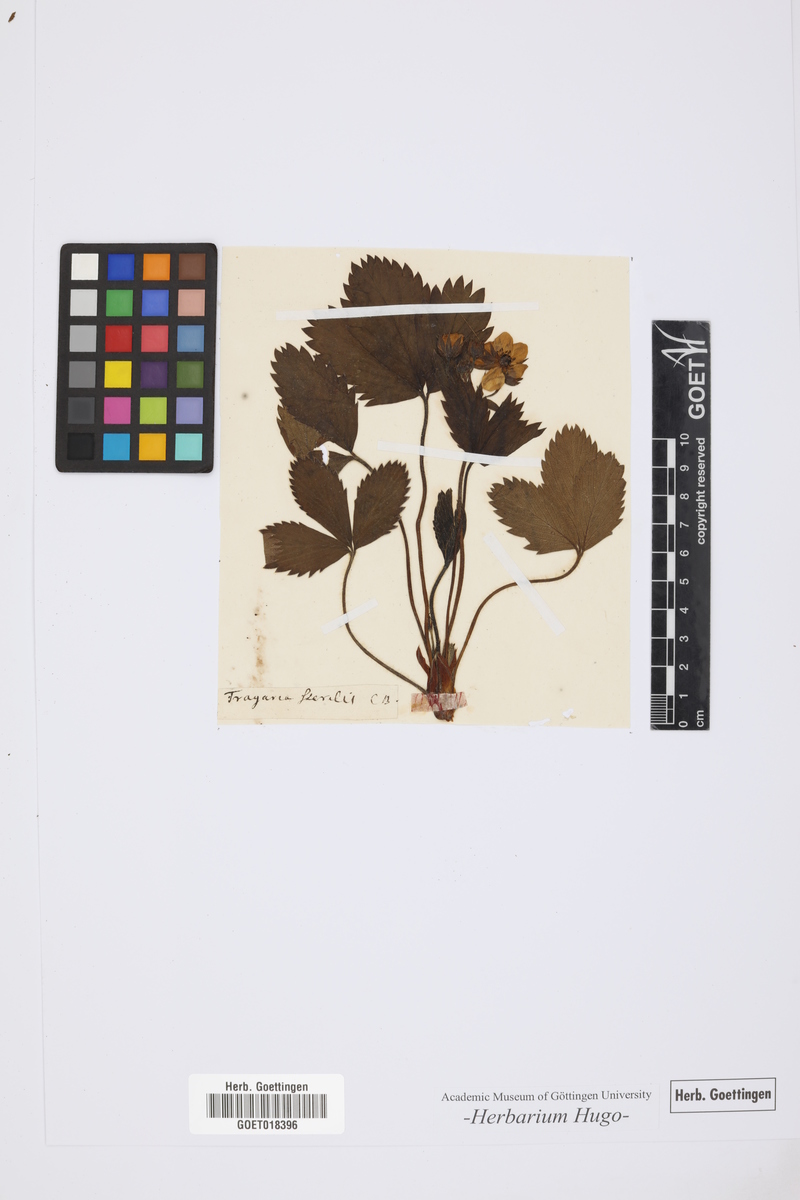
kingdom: Plantae
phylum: Tracheophyta
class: Magnoliopsida
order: Rosales
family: Rosaceae
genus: Fragaria
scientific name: Fragaria
